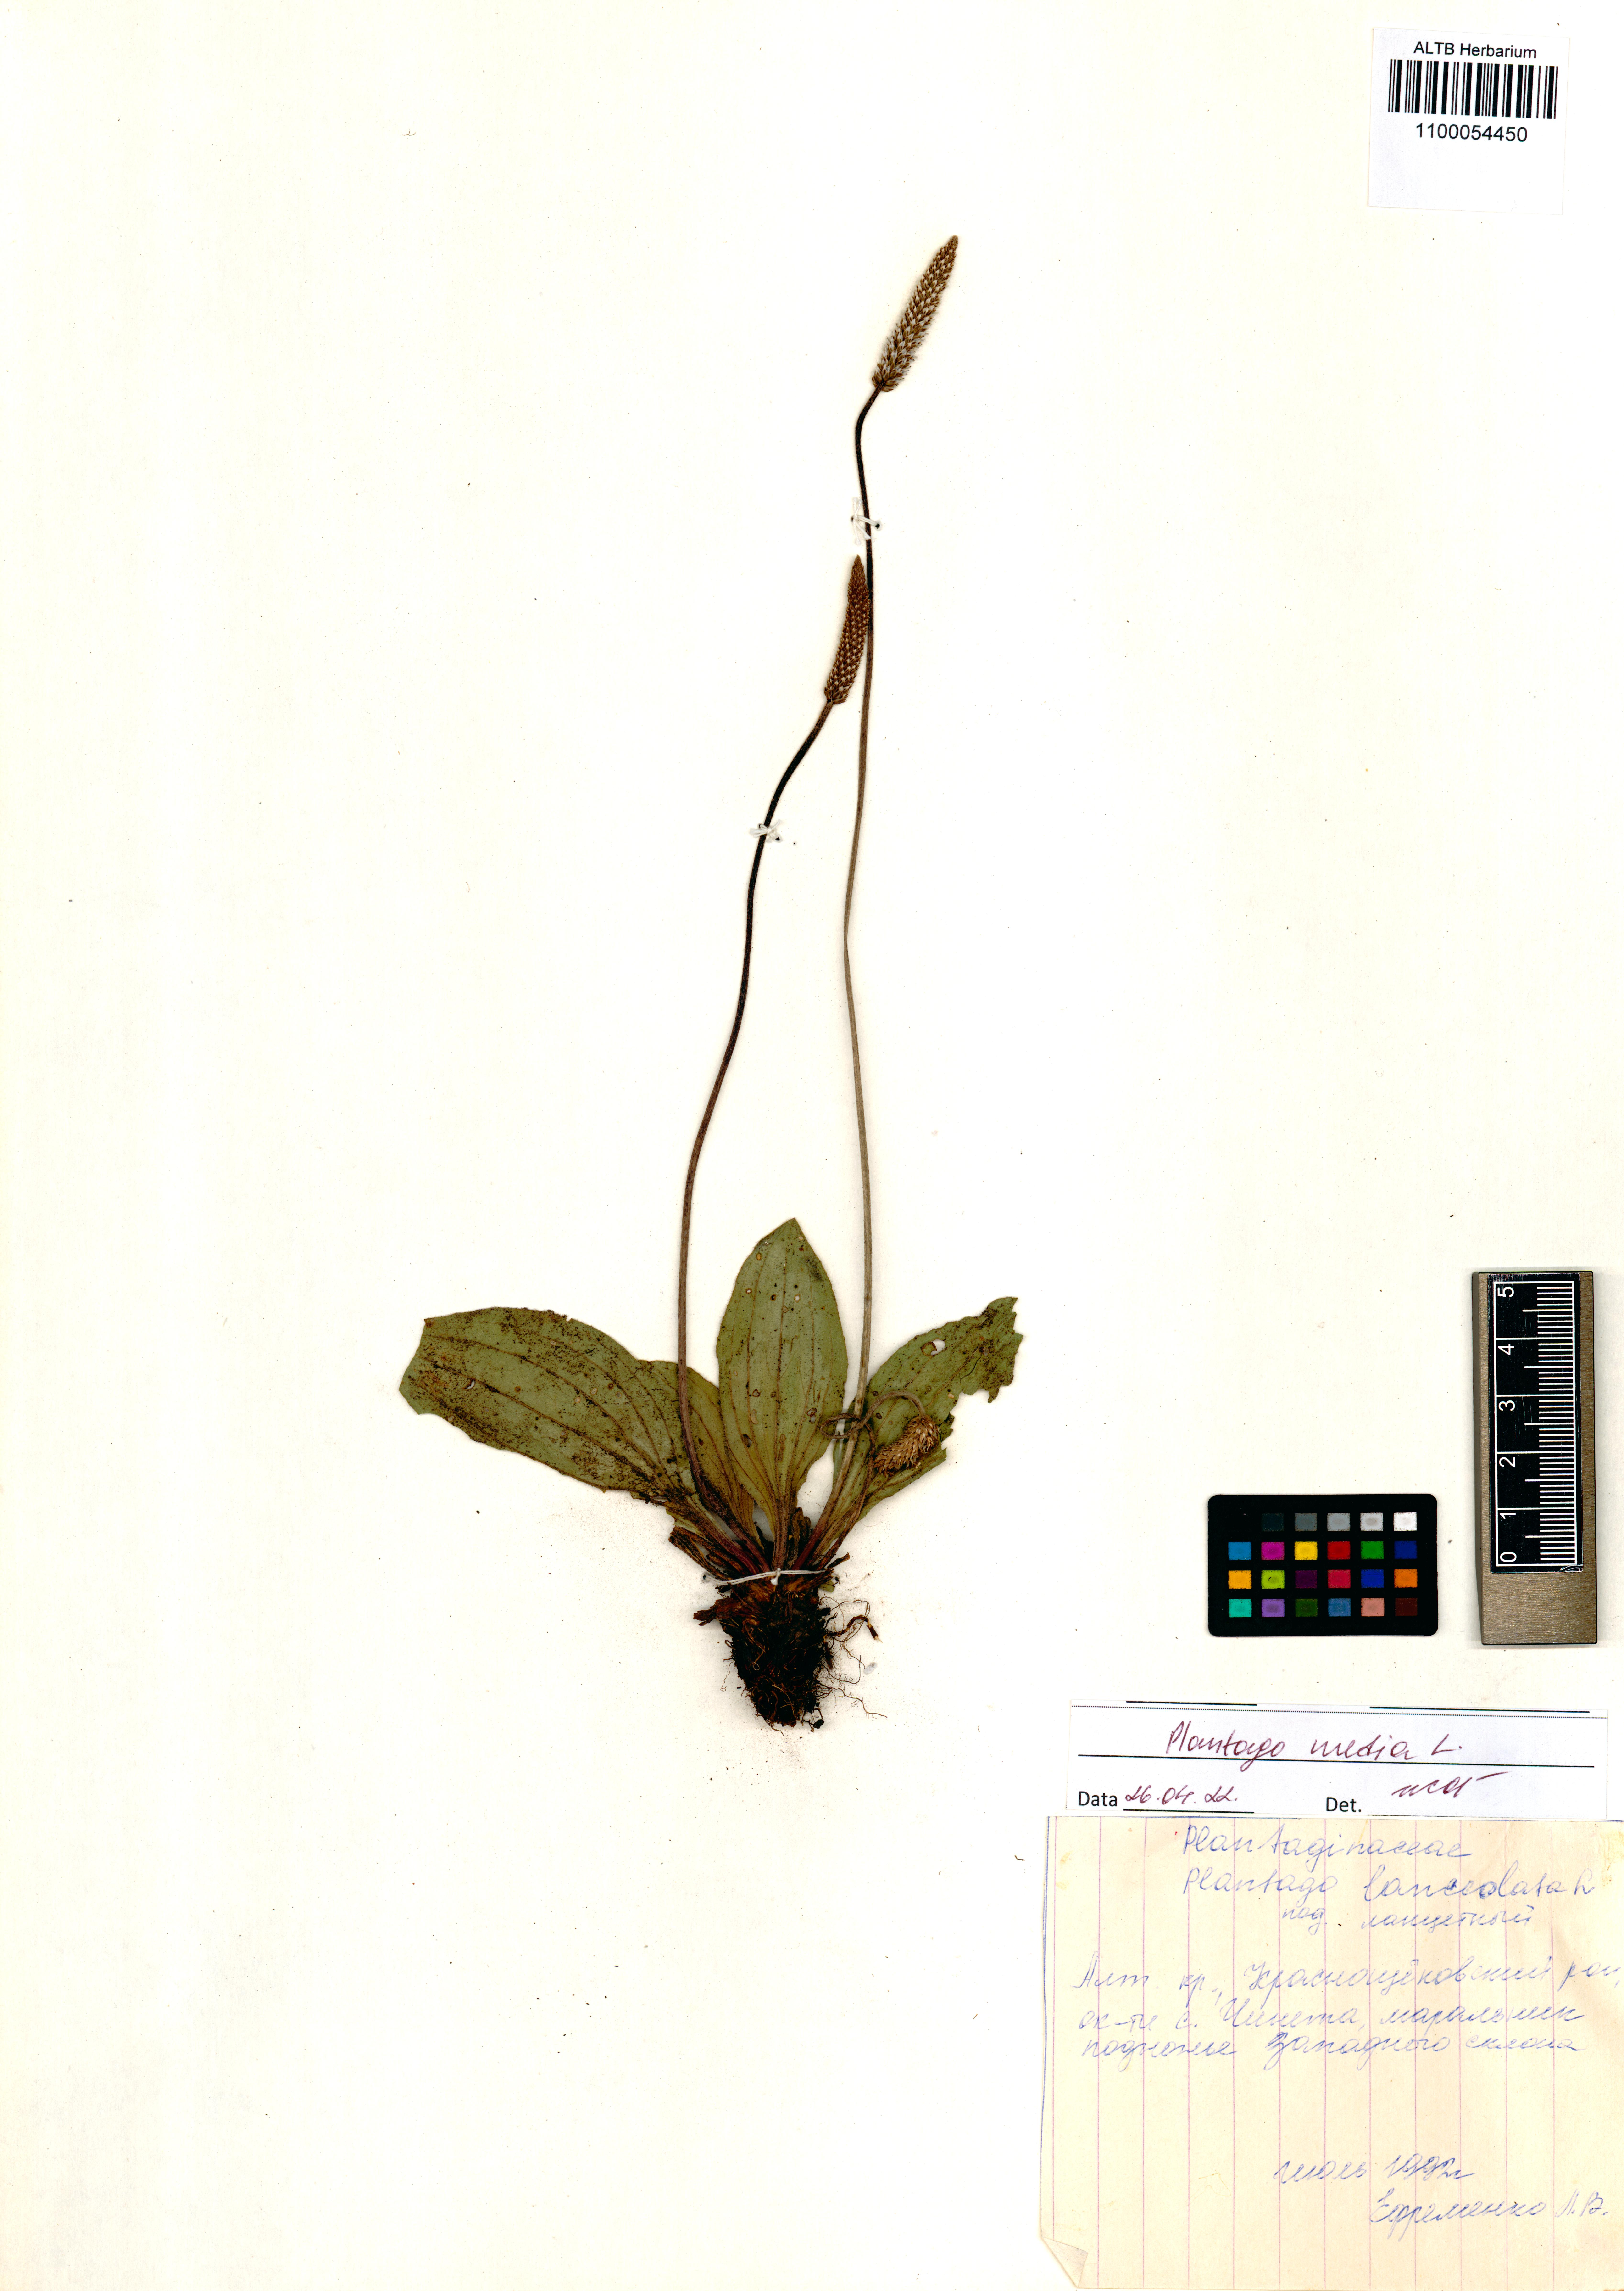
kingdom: Plantae
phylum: Tracheophyta
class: Magnoliopsida
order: Lamiales
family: Plantaginaceae
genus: Plantago
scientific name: Plantago media
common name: Hoary plantain
